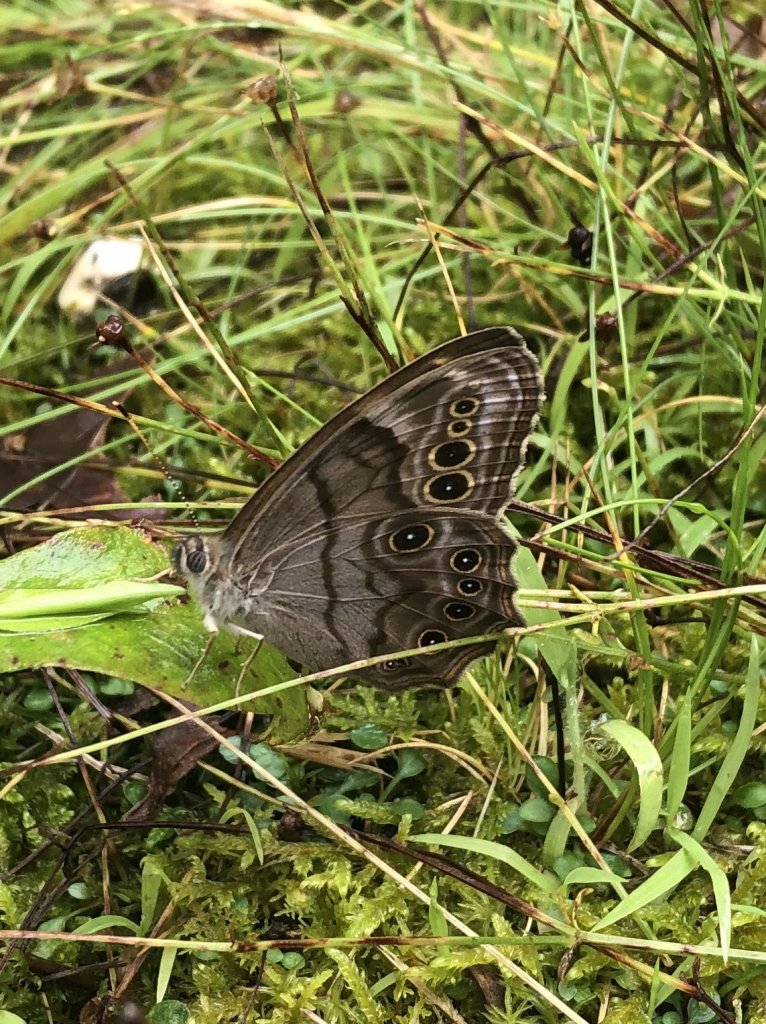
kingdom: Animalia
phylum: Arthropoda
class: Insecta
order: Lepidoptera
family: Nymphalidae
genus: Lethe
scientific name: Lethe anthedon
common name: Northern Pearly-Eye
